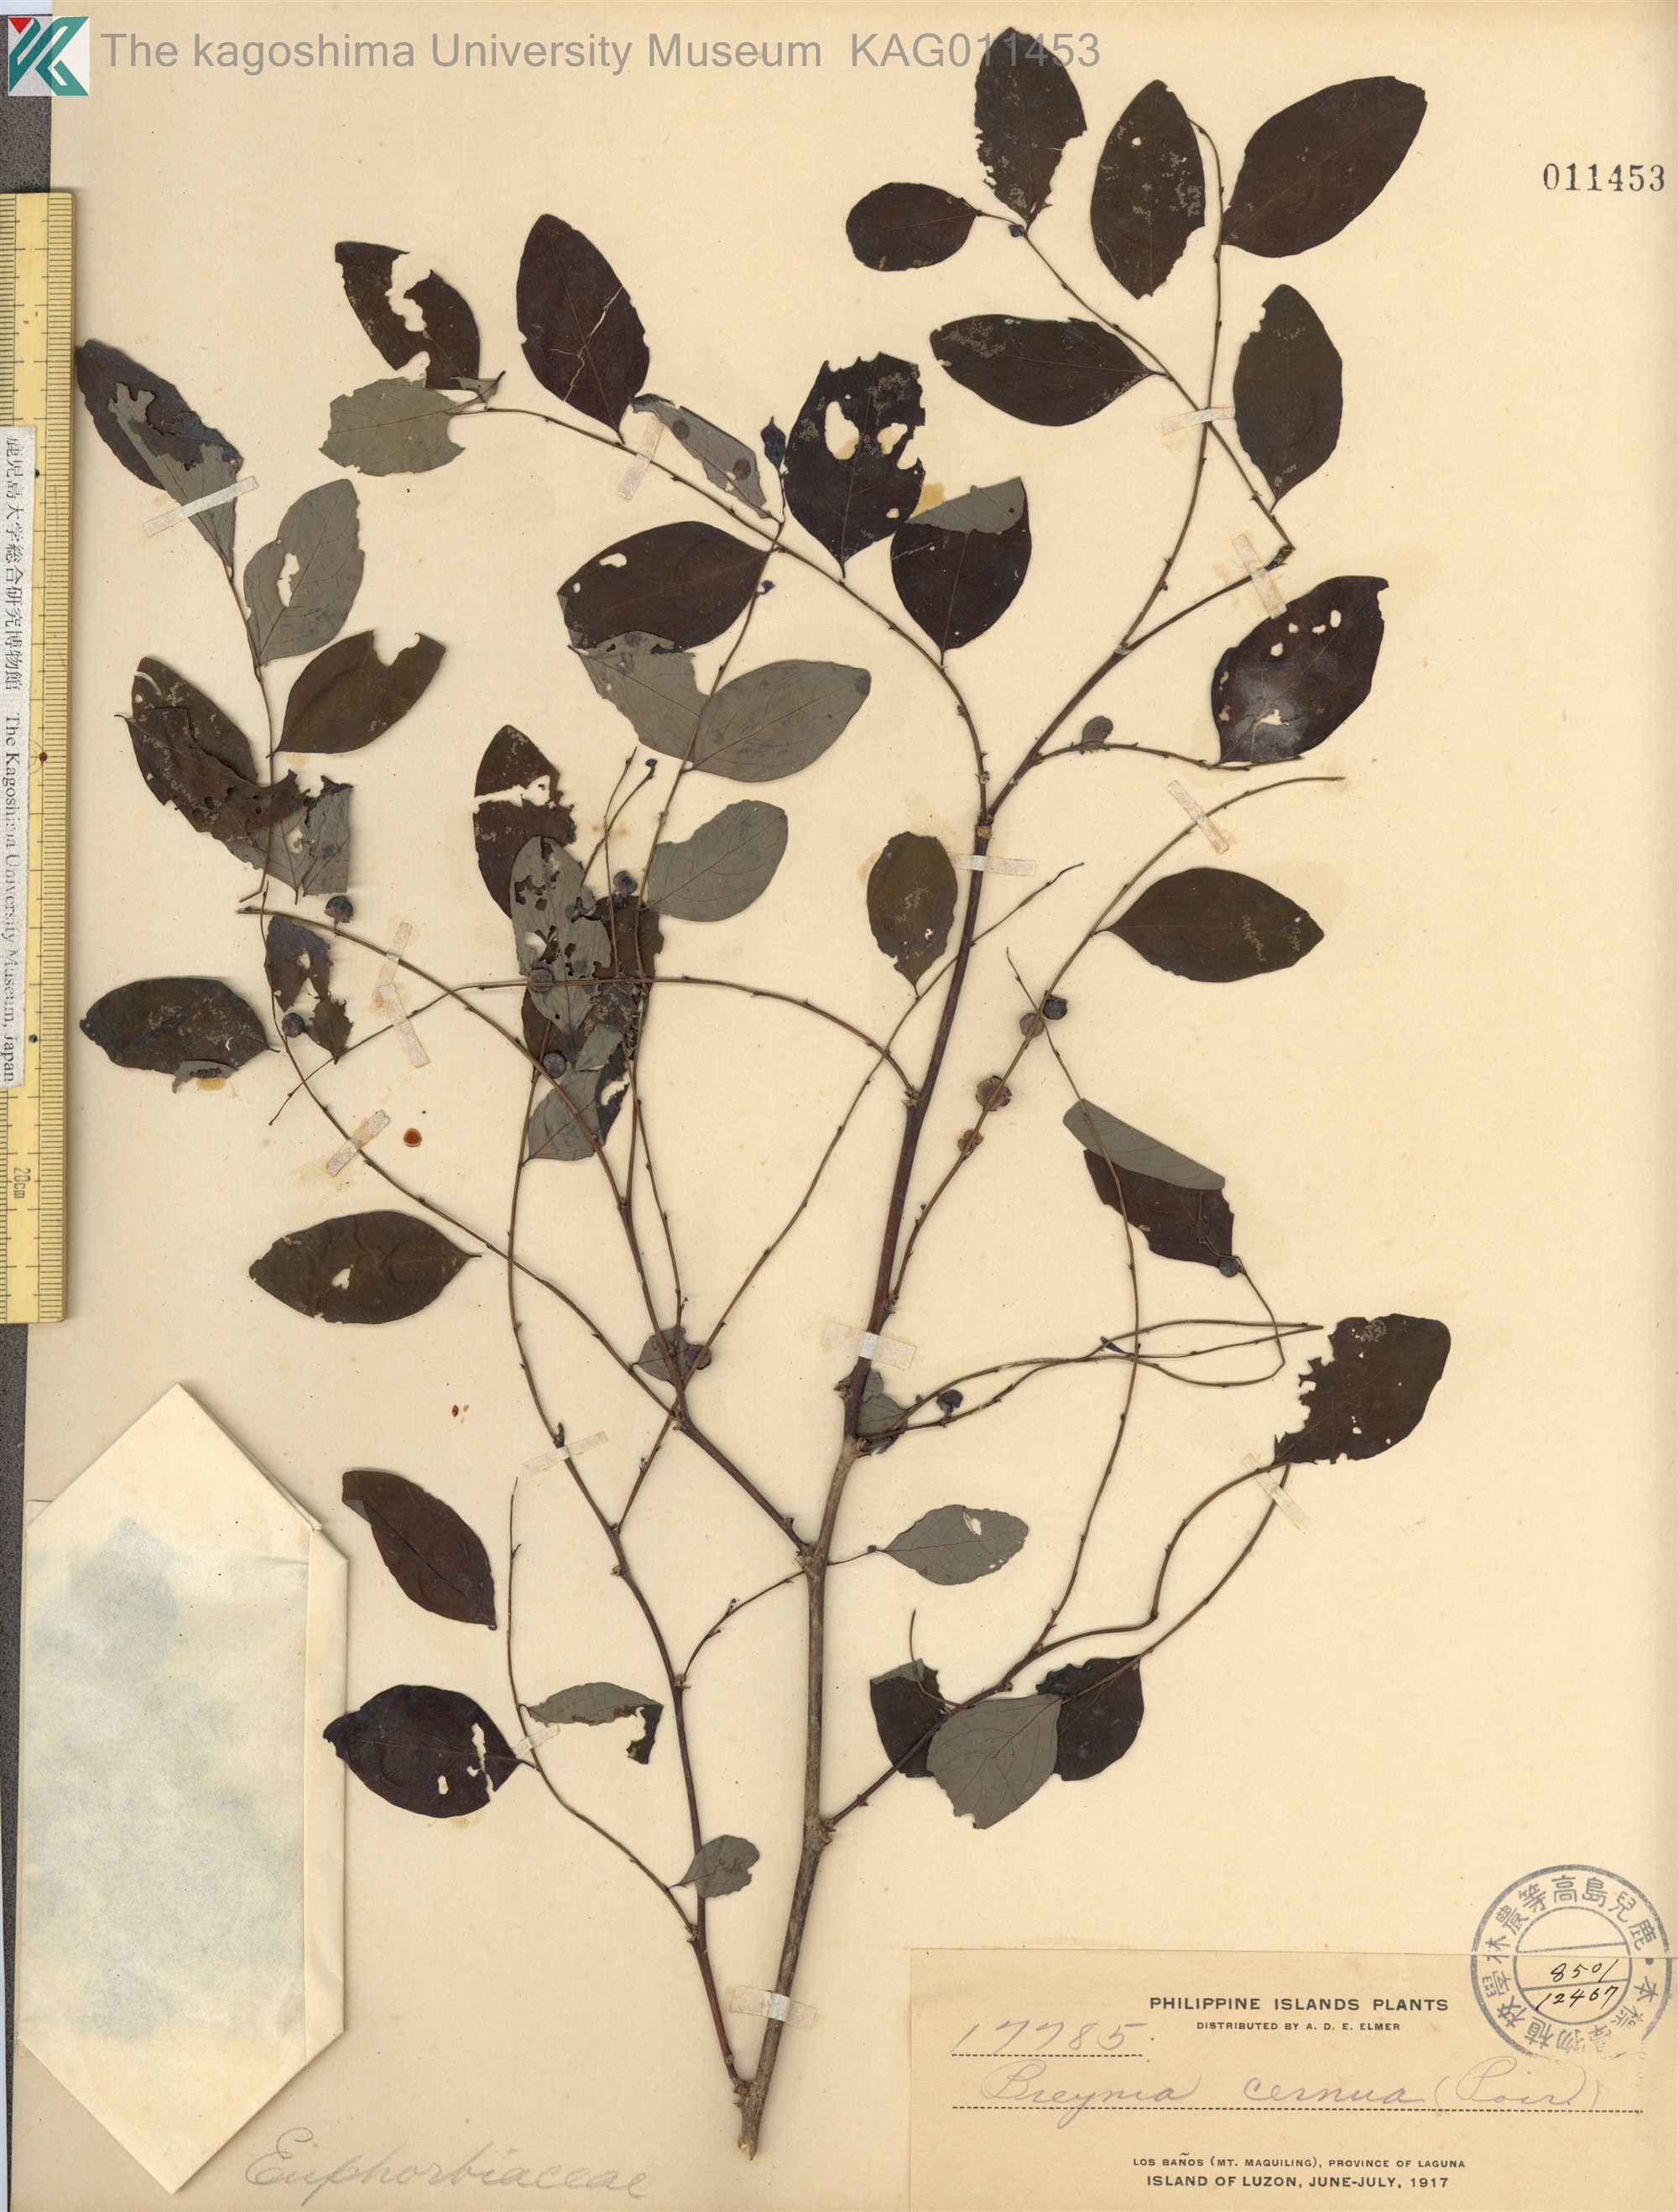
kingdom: Plantae
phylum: Tracheophyta
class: Magnoliopsida
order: Malpighiales
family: Phyllanthaceae
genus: Breynia
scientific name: Breynia cernua
